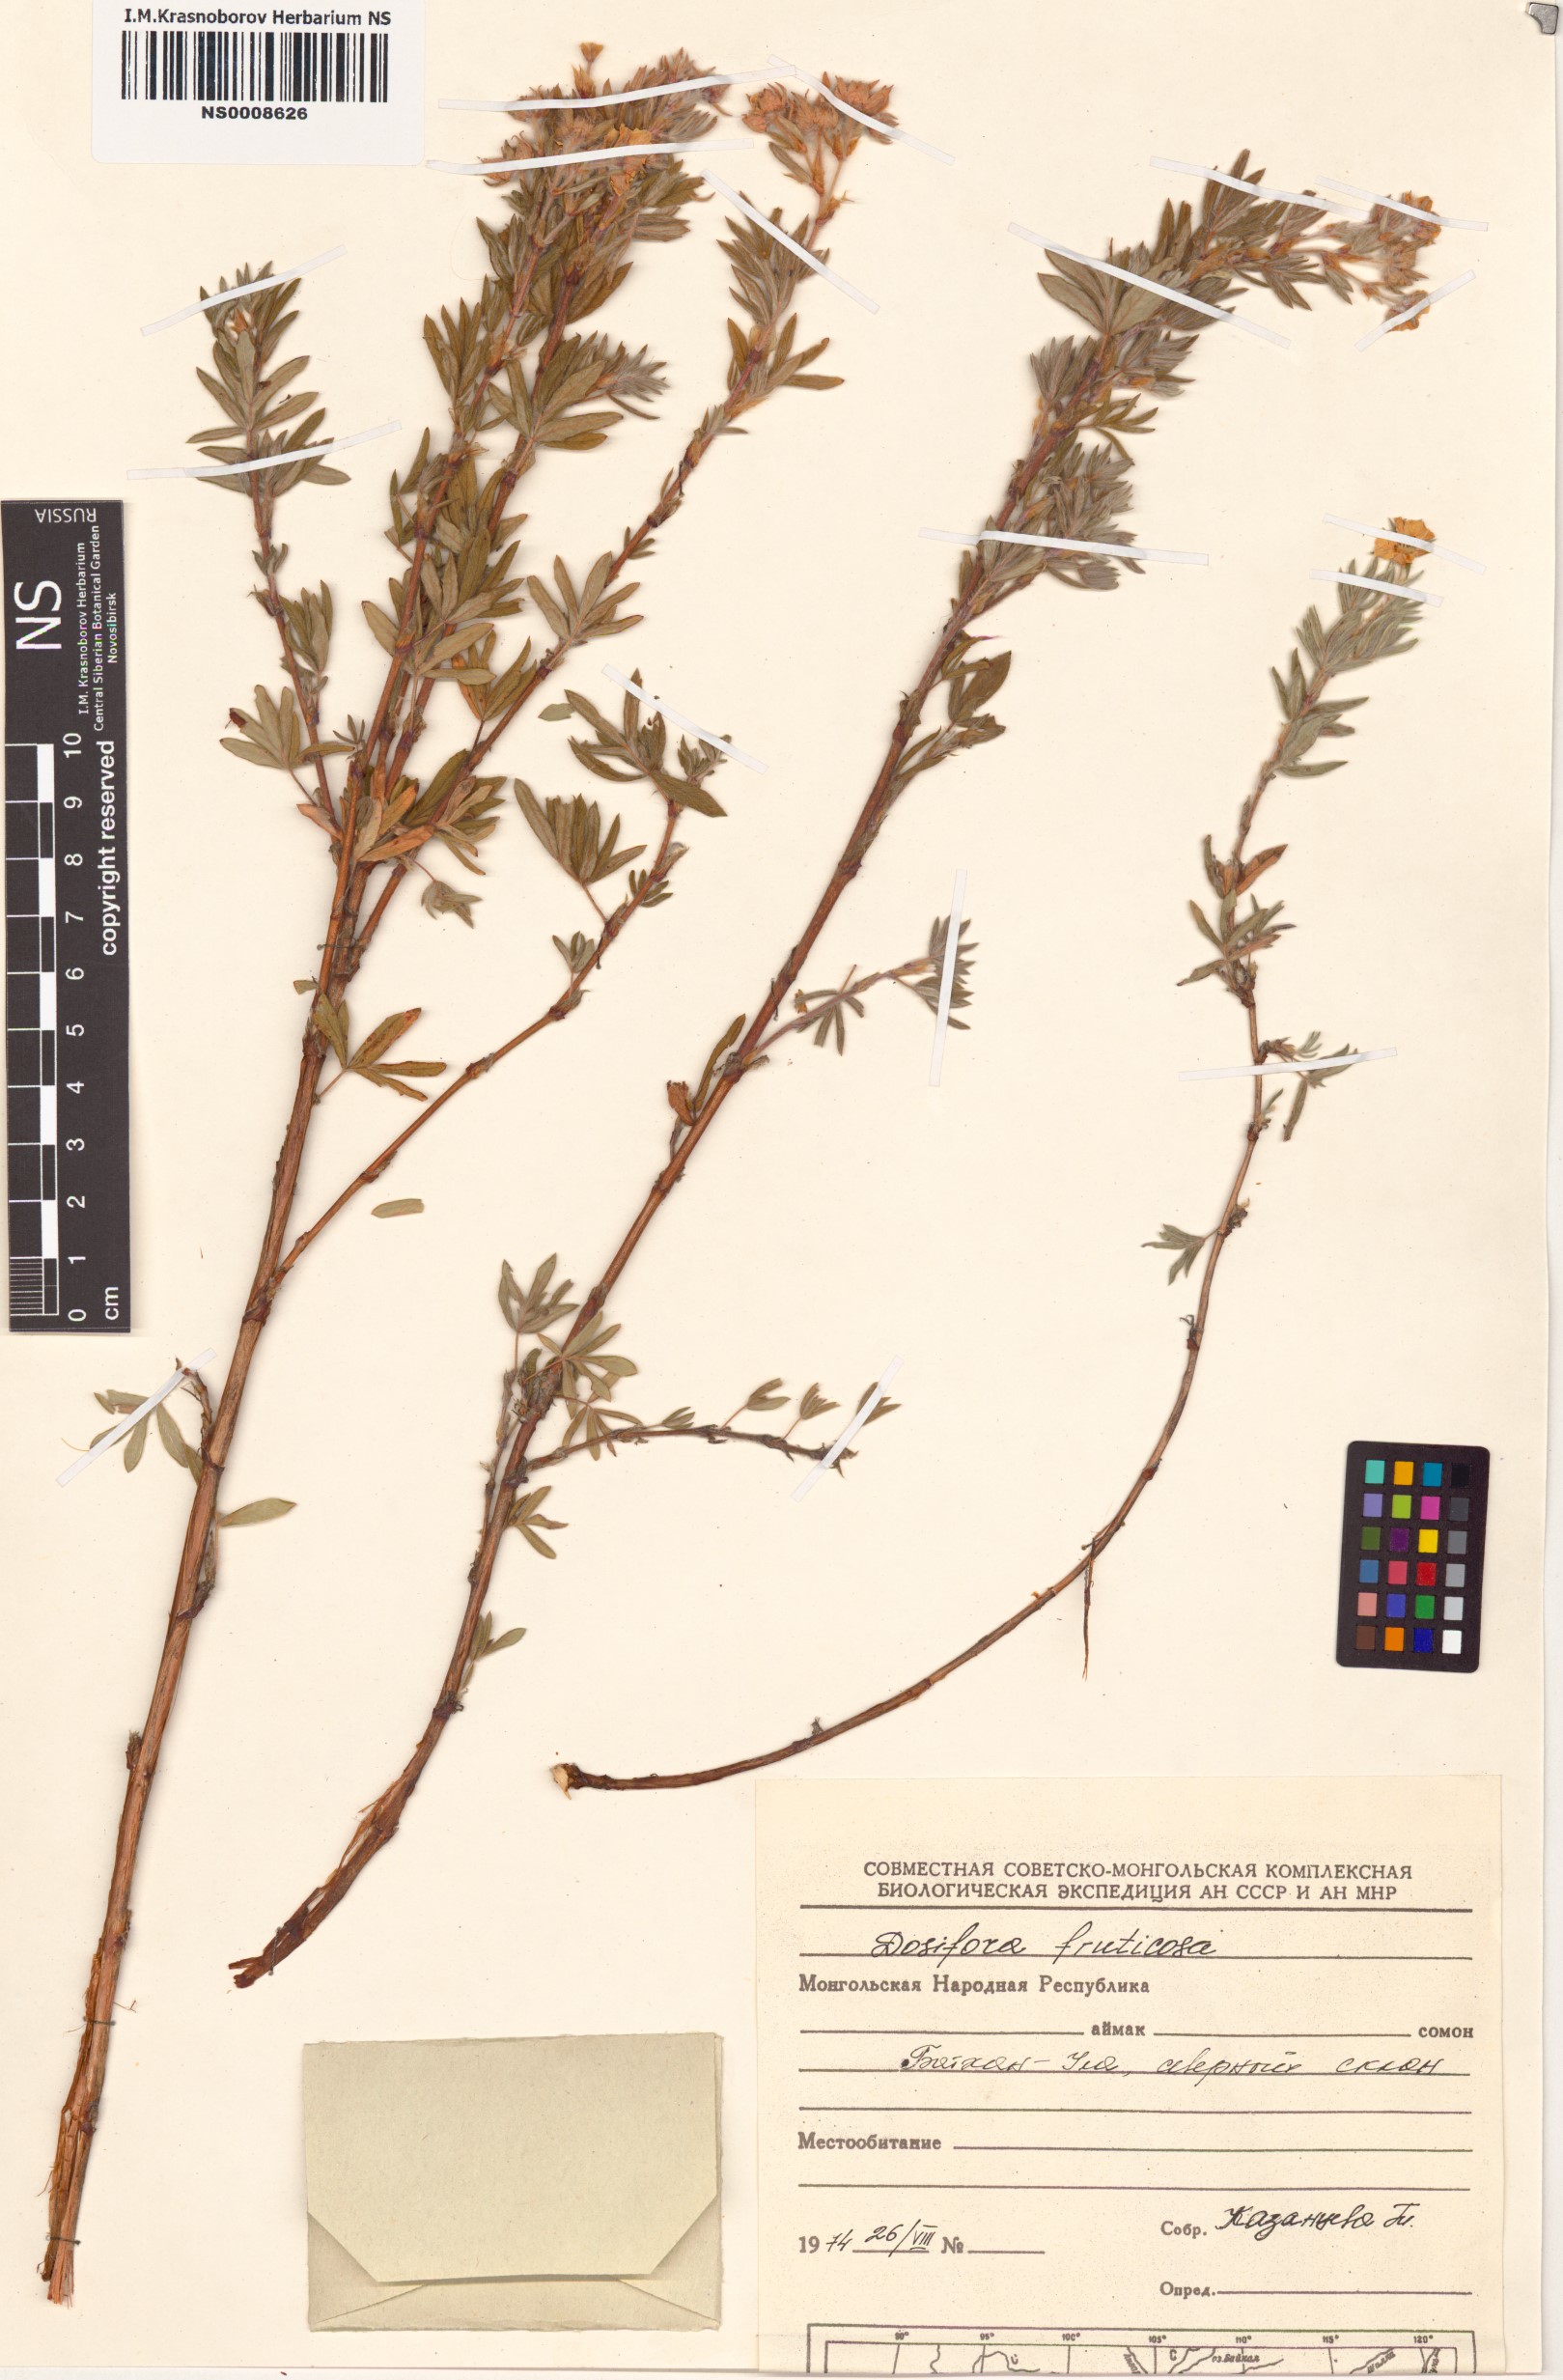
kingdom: Plantae
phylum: Tracheophyta
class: Magnoliopsida
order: Rosales
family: Rosaceae
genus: Dasiphora
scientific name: Dasiphora fruticosa
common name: Shrubby cinquefoil
